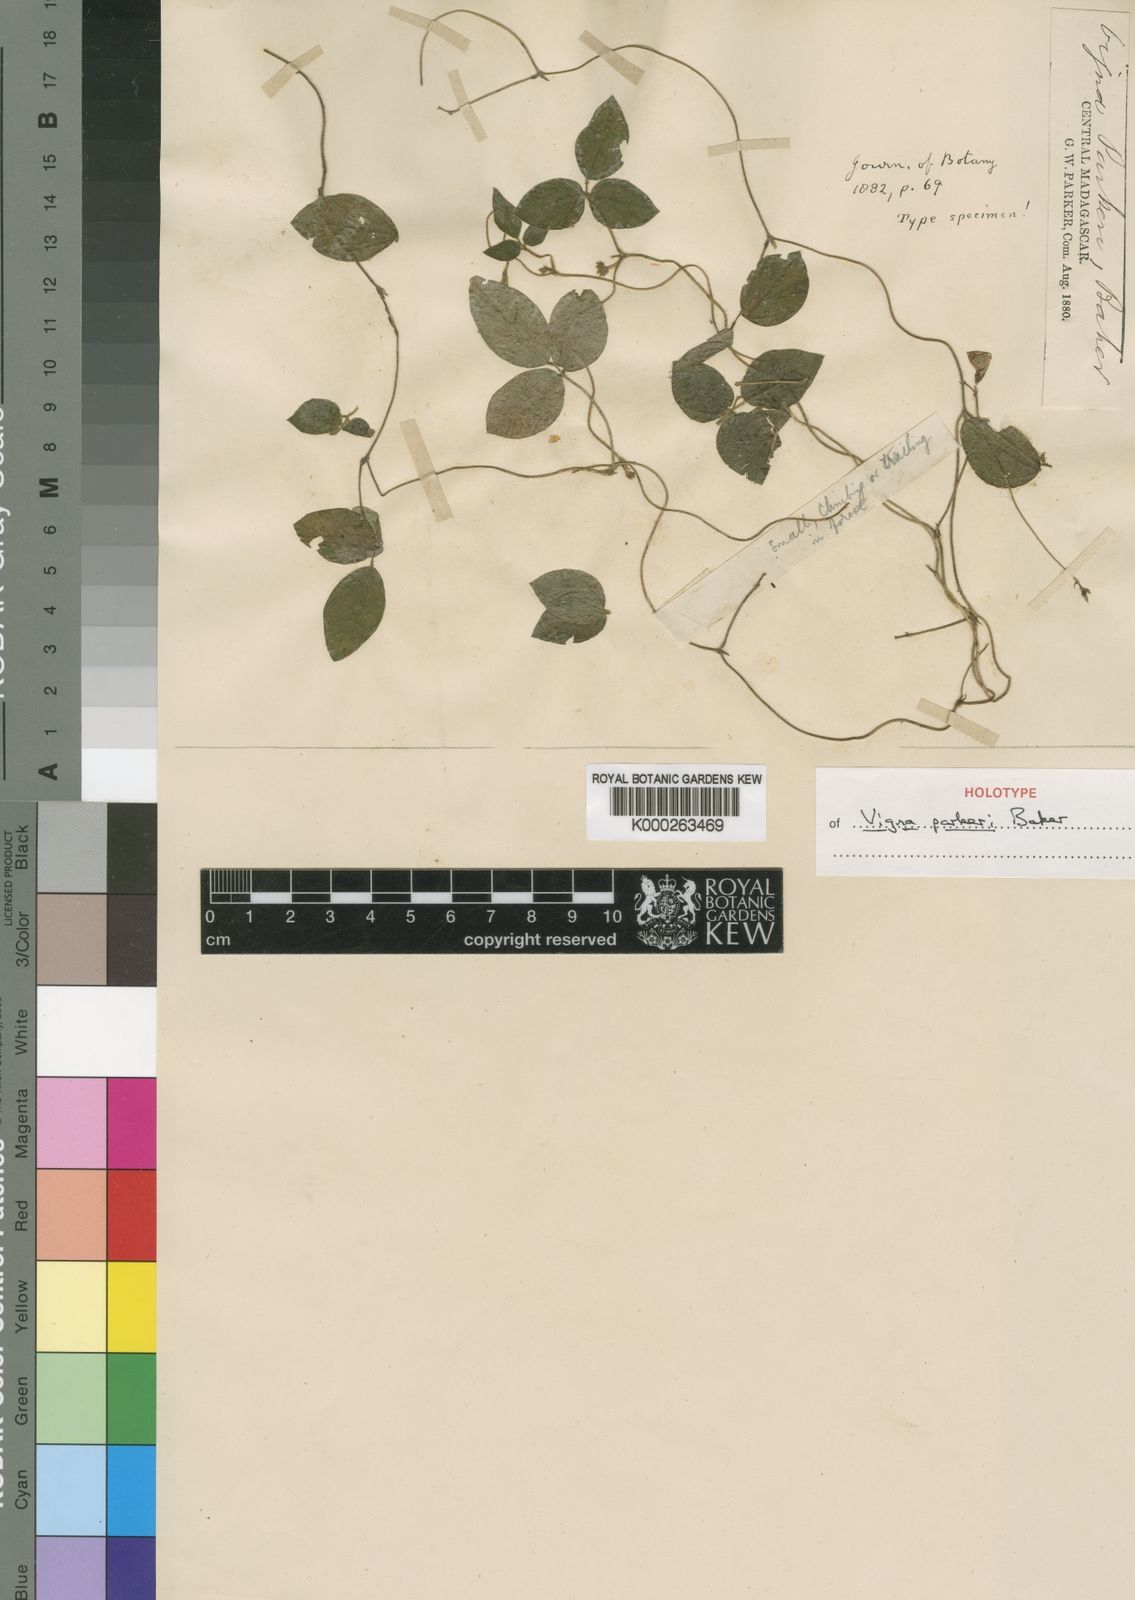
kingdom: Plantae
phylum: Tracheophyta
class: Magnoliopsida
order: Fabales
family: Fabaceae
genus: Vigna
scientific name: Vigna parkeri
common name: Creeping vigna
